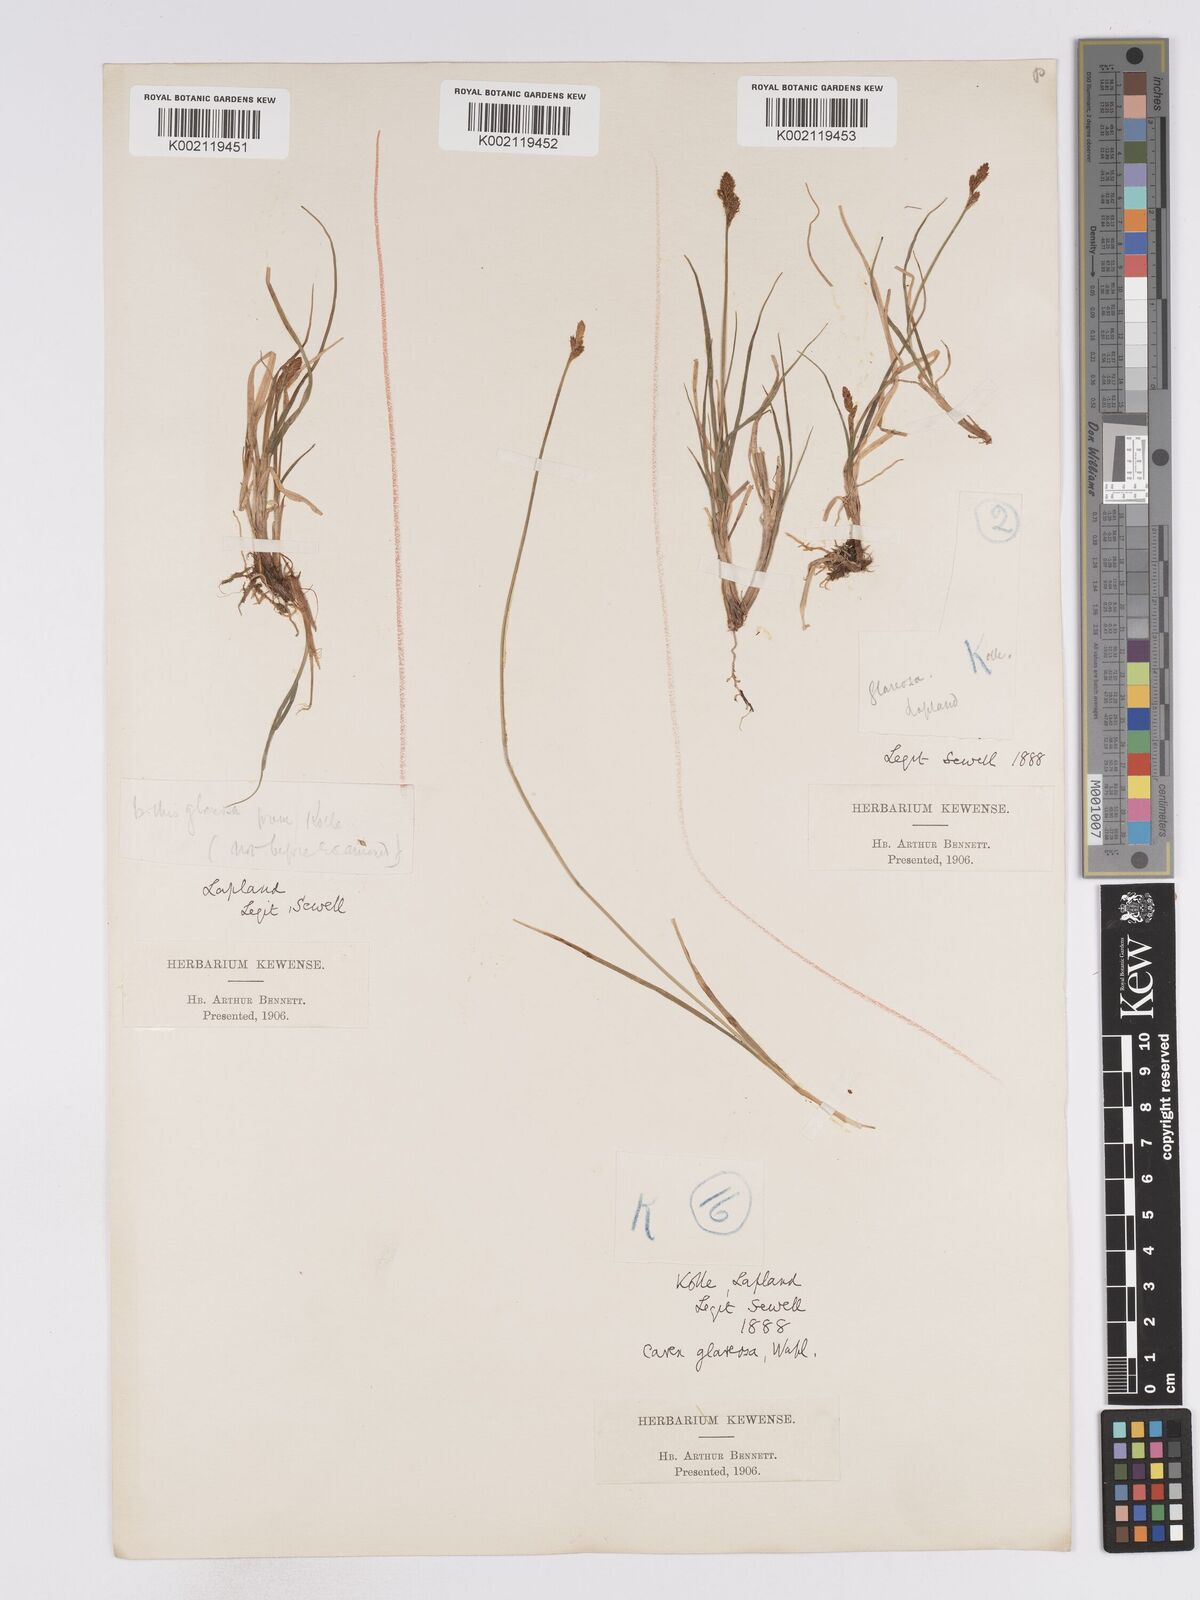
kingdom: Plantae
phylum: Tracheophyta
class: Liliopsida
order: Poales
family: Cyperaceae
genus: Carex
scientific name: Carex glareosa
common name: Clustered sedge
